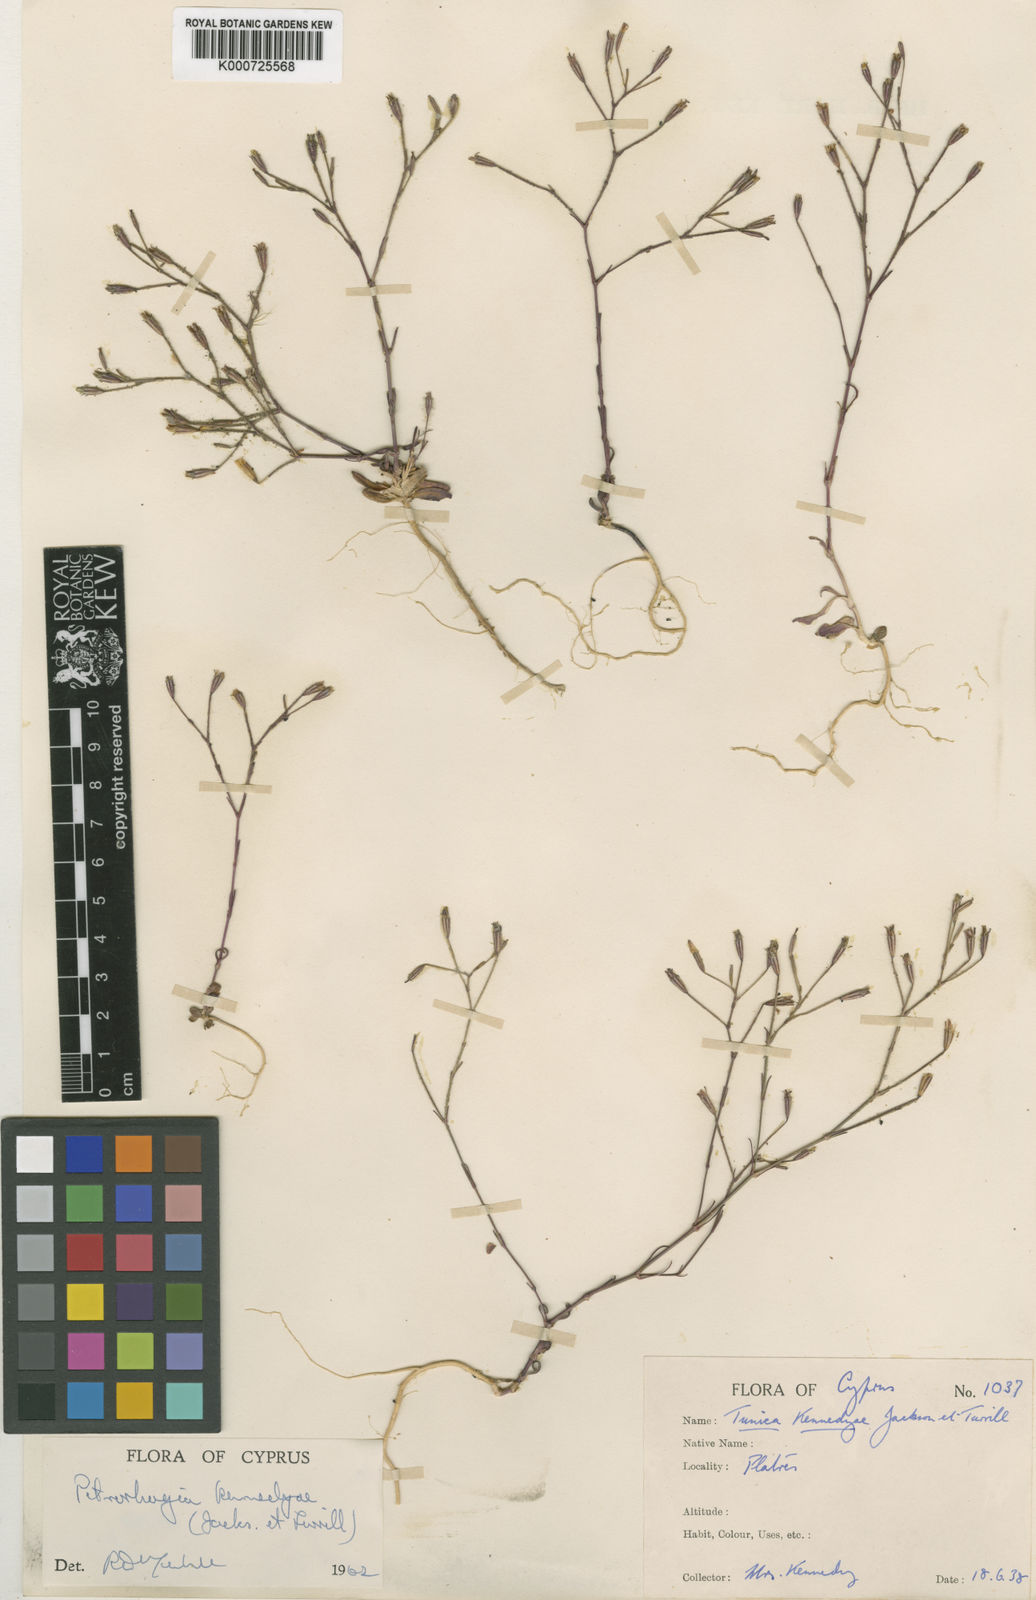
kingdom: Plantae
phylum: Tracheophyta
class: Magnoliopsida
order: Caryophyllales
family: Caryophyllaceae
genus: Petrorhagia
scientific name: Petrorhagia
